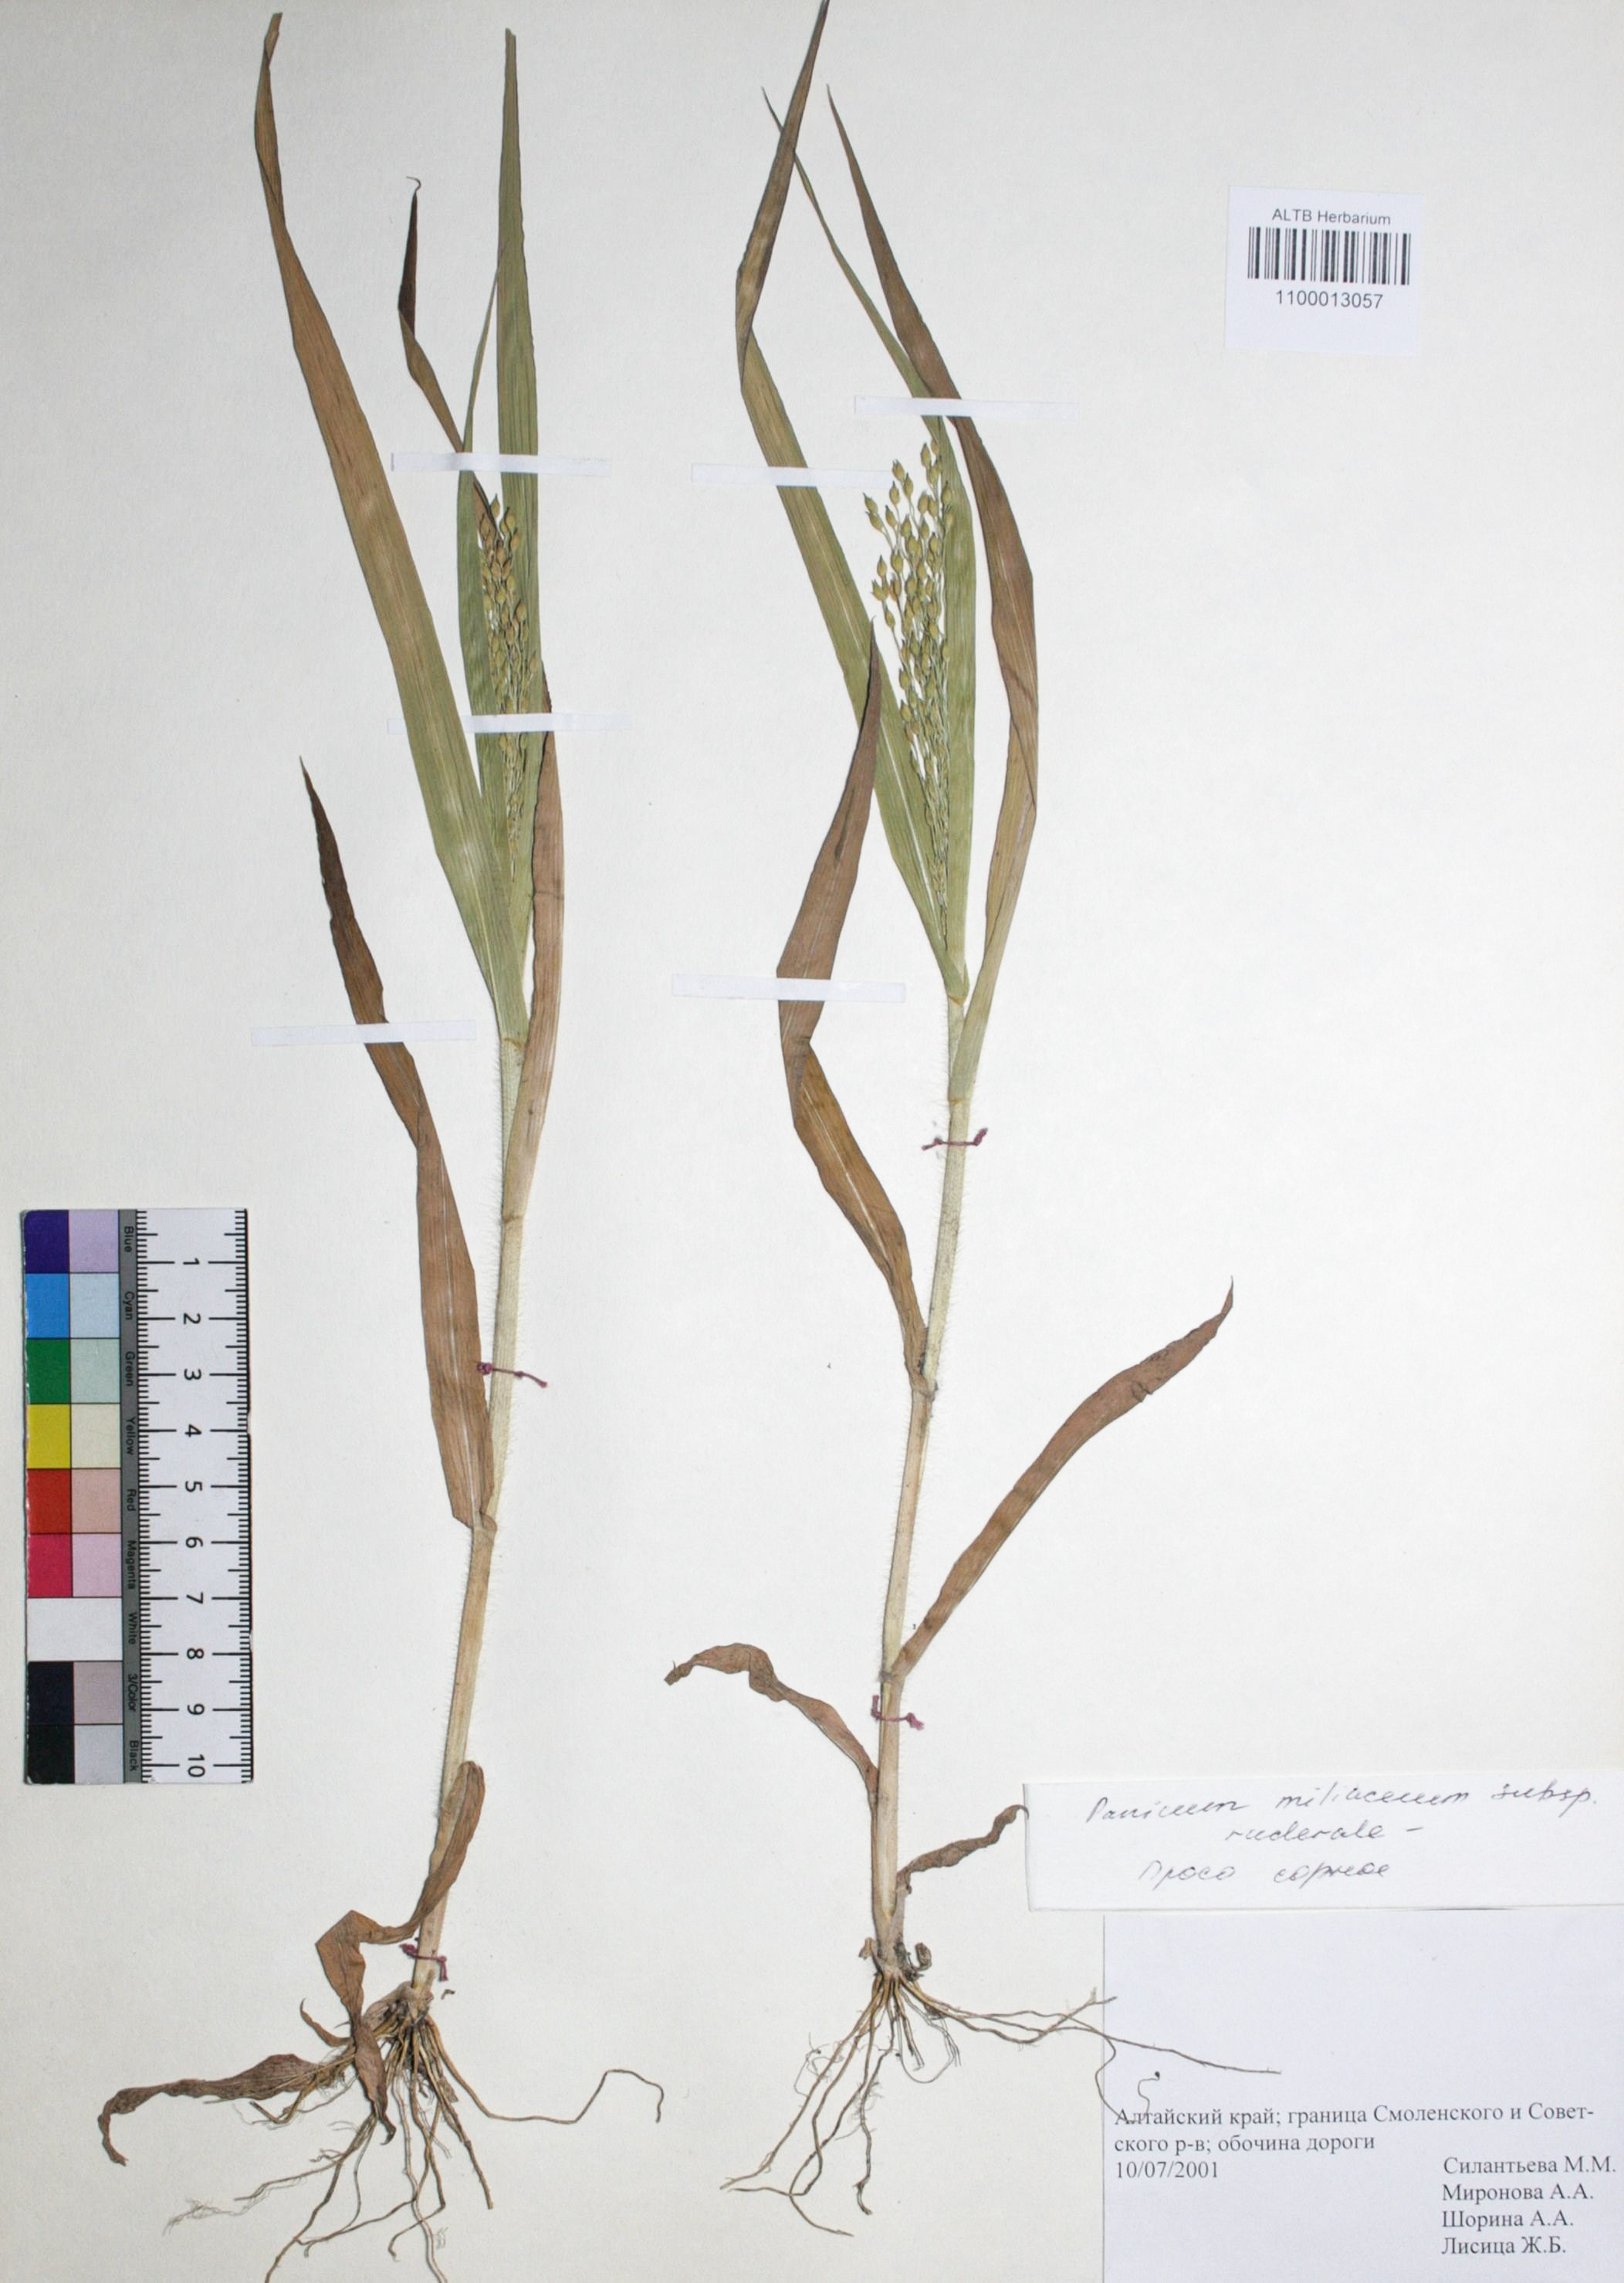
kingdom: Plantae
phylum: Tracheophyta
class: Liliopsida
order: Poales
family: Poaceae
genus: Panicum
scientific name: Panicum miliaceum
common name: Common millet
